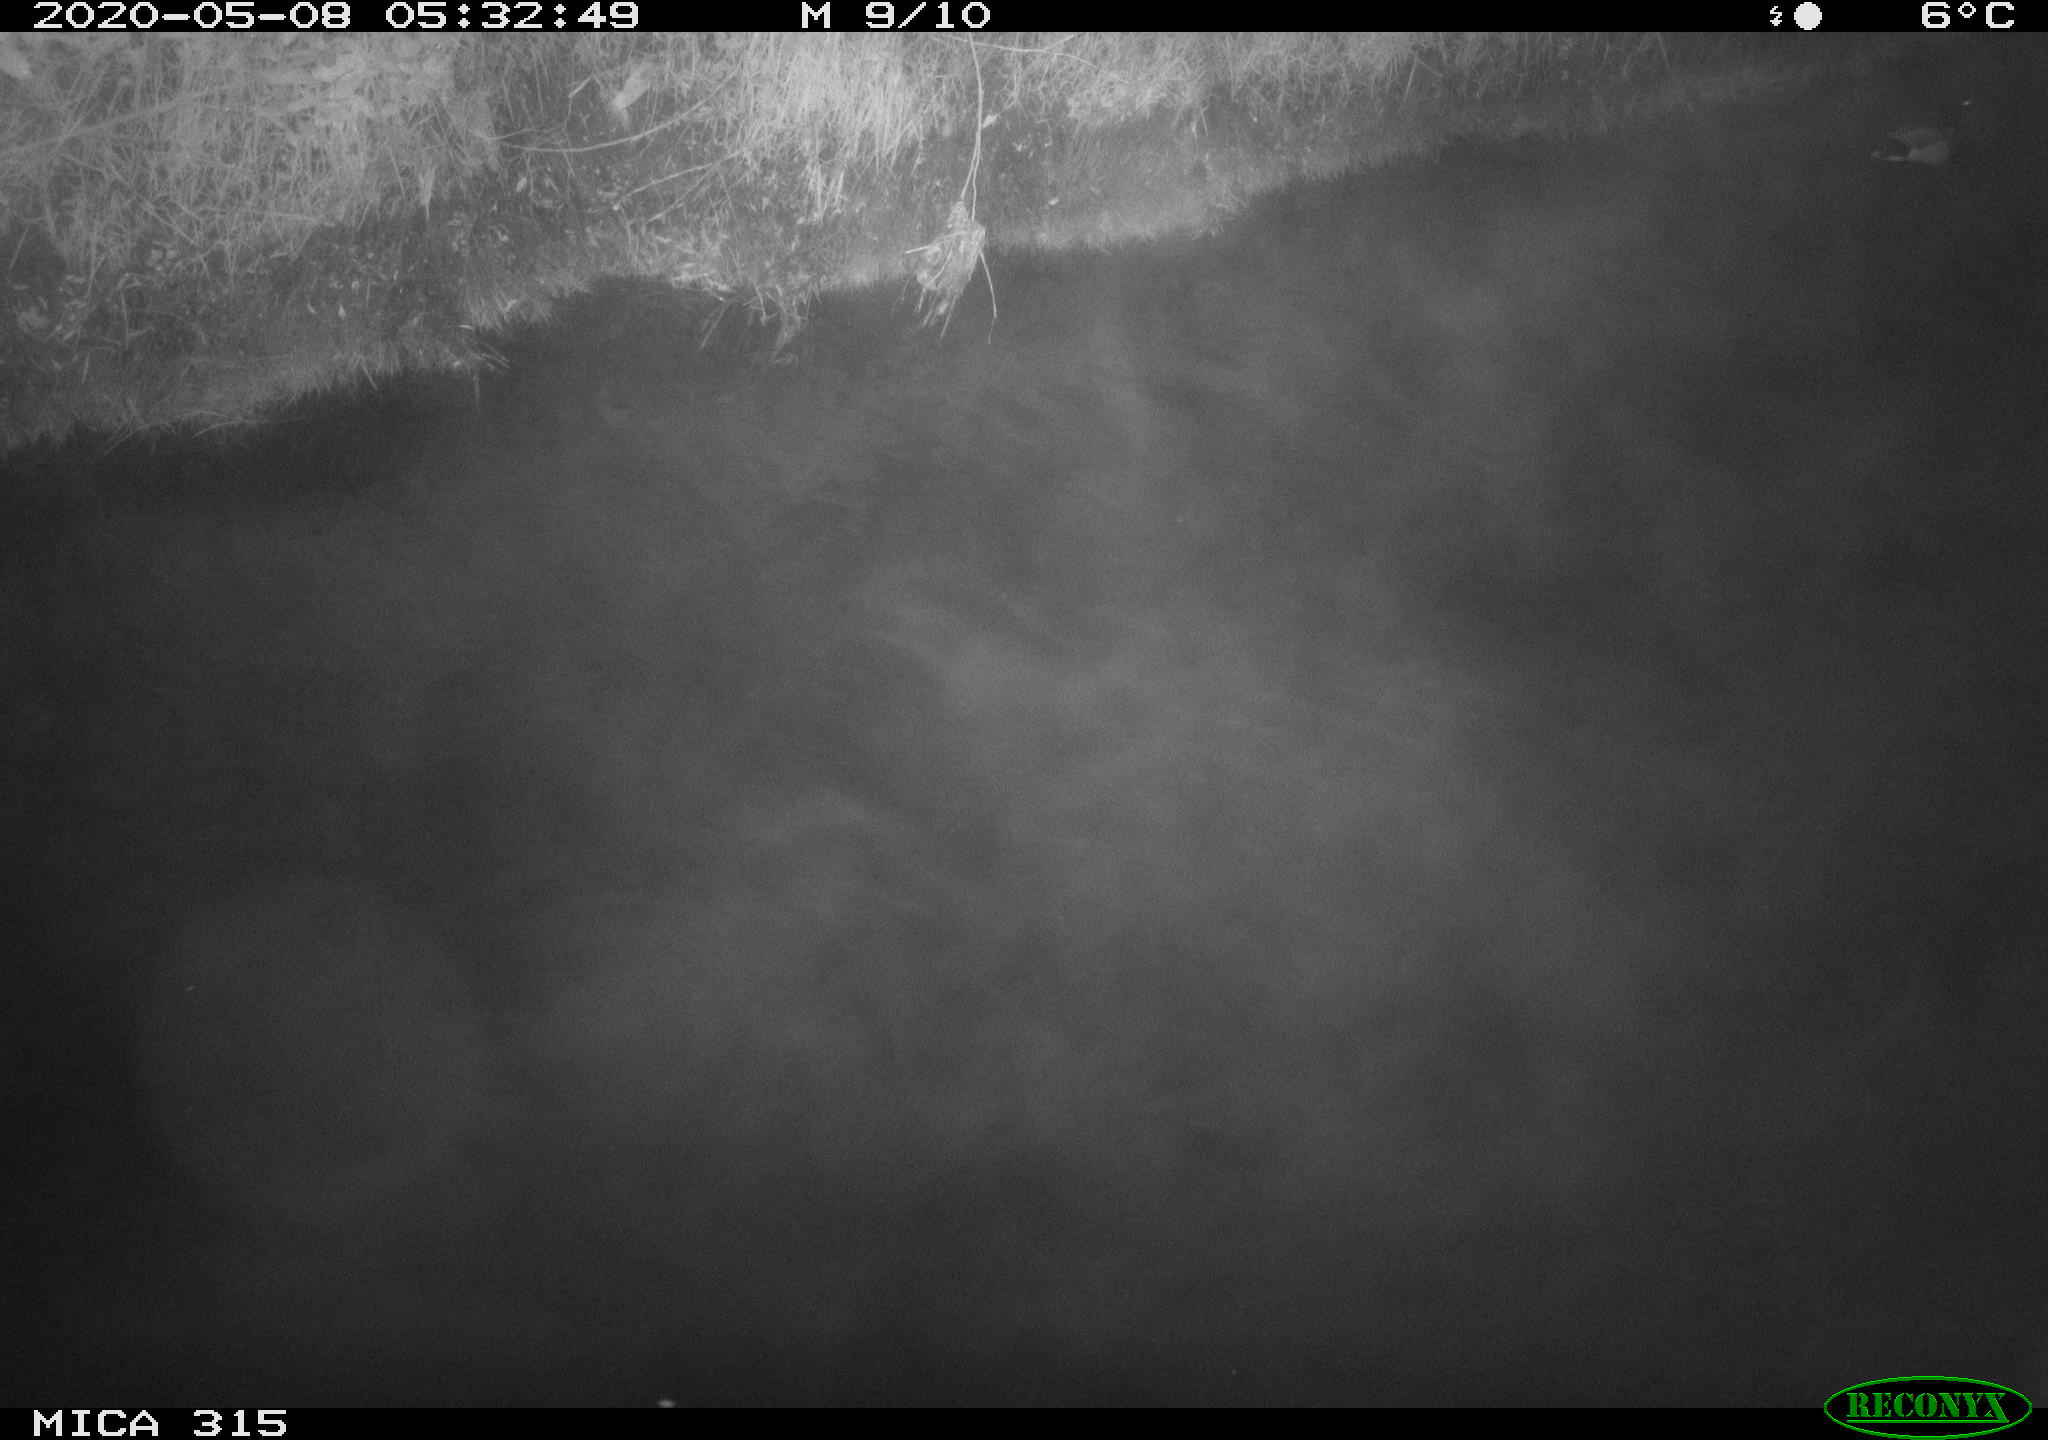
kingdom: Animalia
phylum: Chordata
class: Aves
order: Anseriformes
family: Anatidae
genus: Anas
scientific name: Anas platyrhynchos
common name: Mallard
